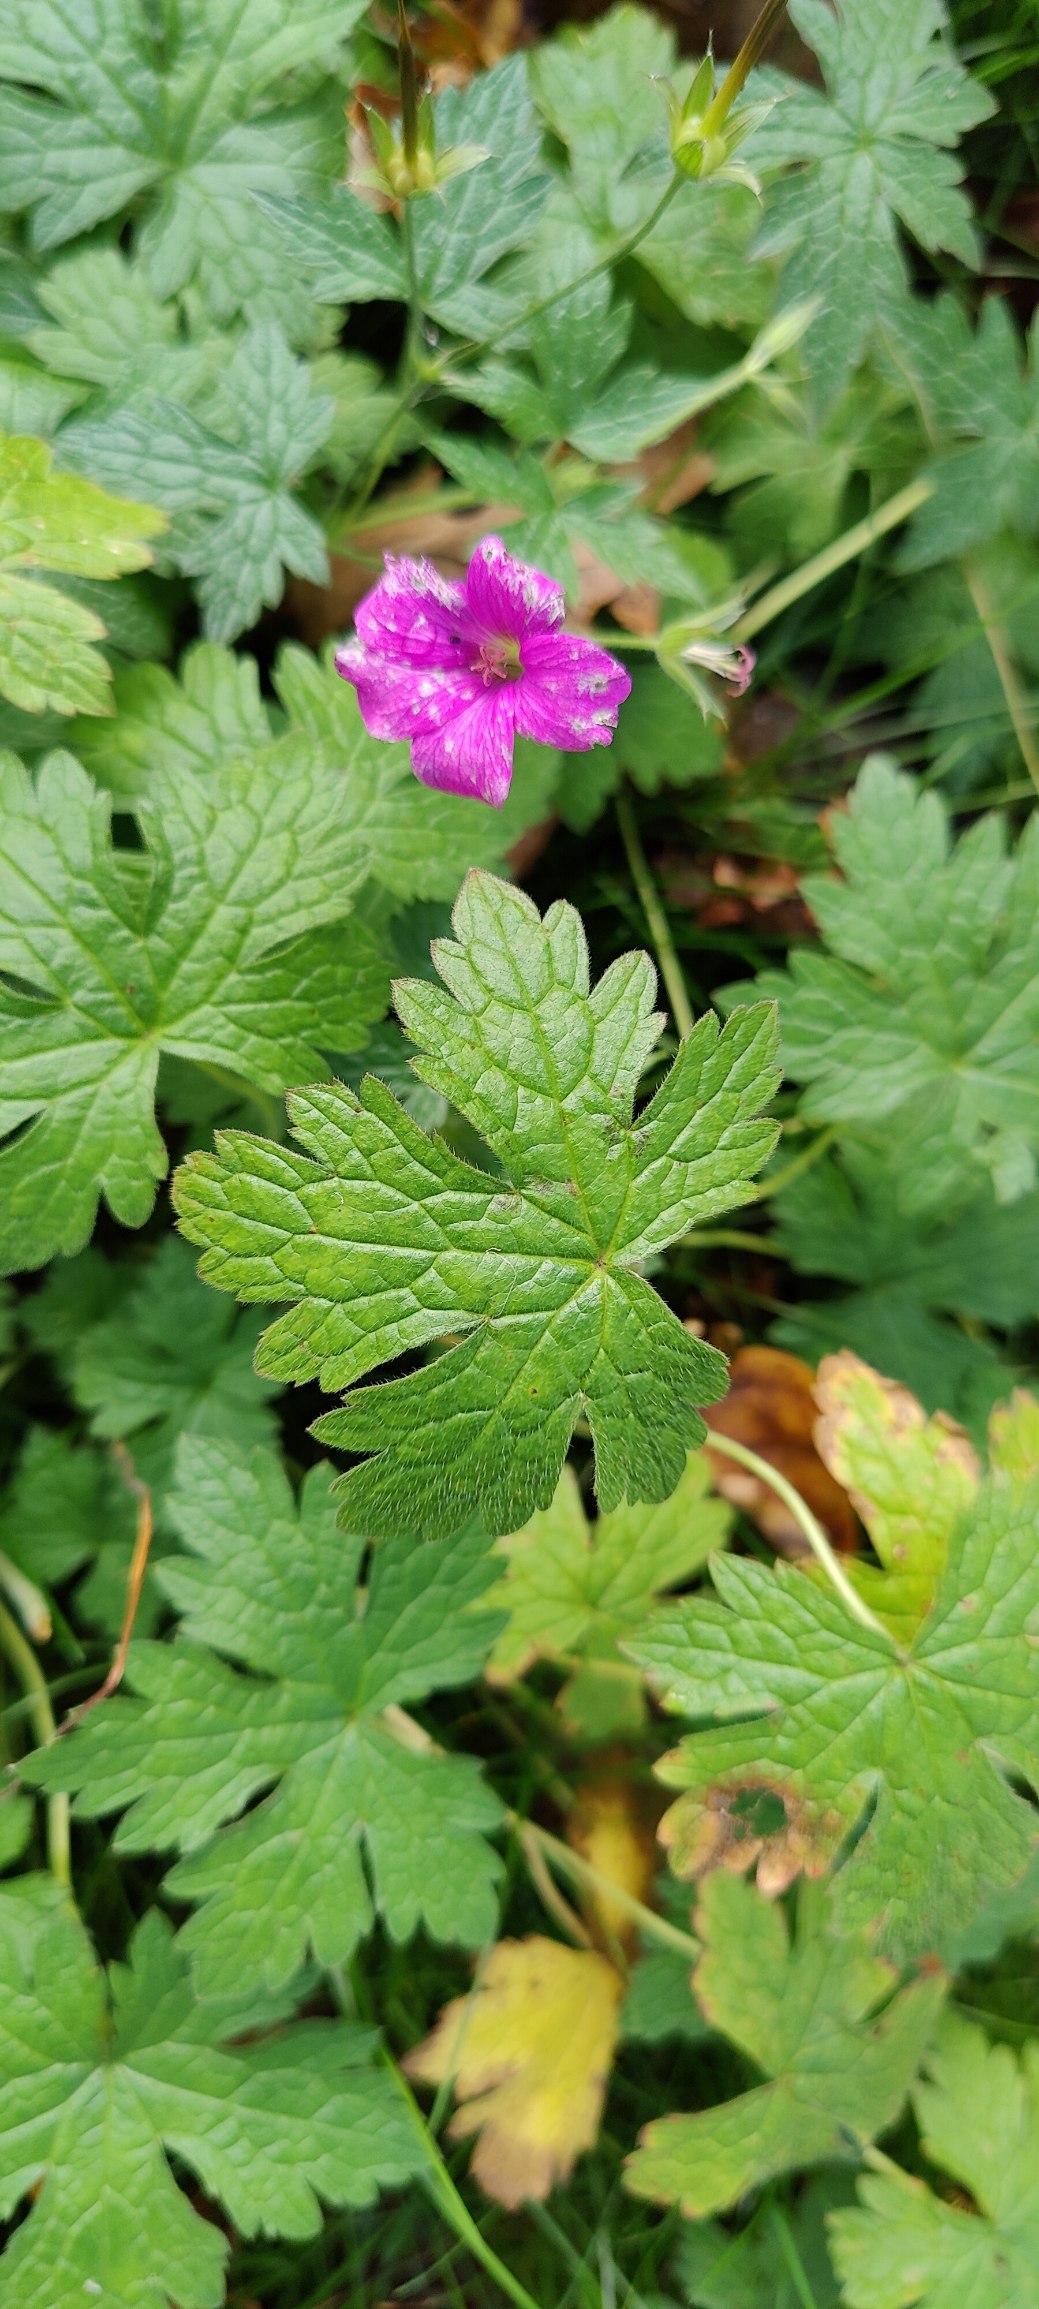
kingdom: Plantae
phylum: Tracheophyta
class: Magnoliopsida
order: Geraniales
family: Geraniaceae
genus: Geranium
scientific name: Geranium oxonianum
